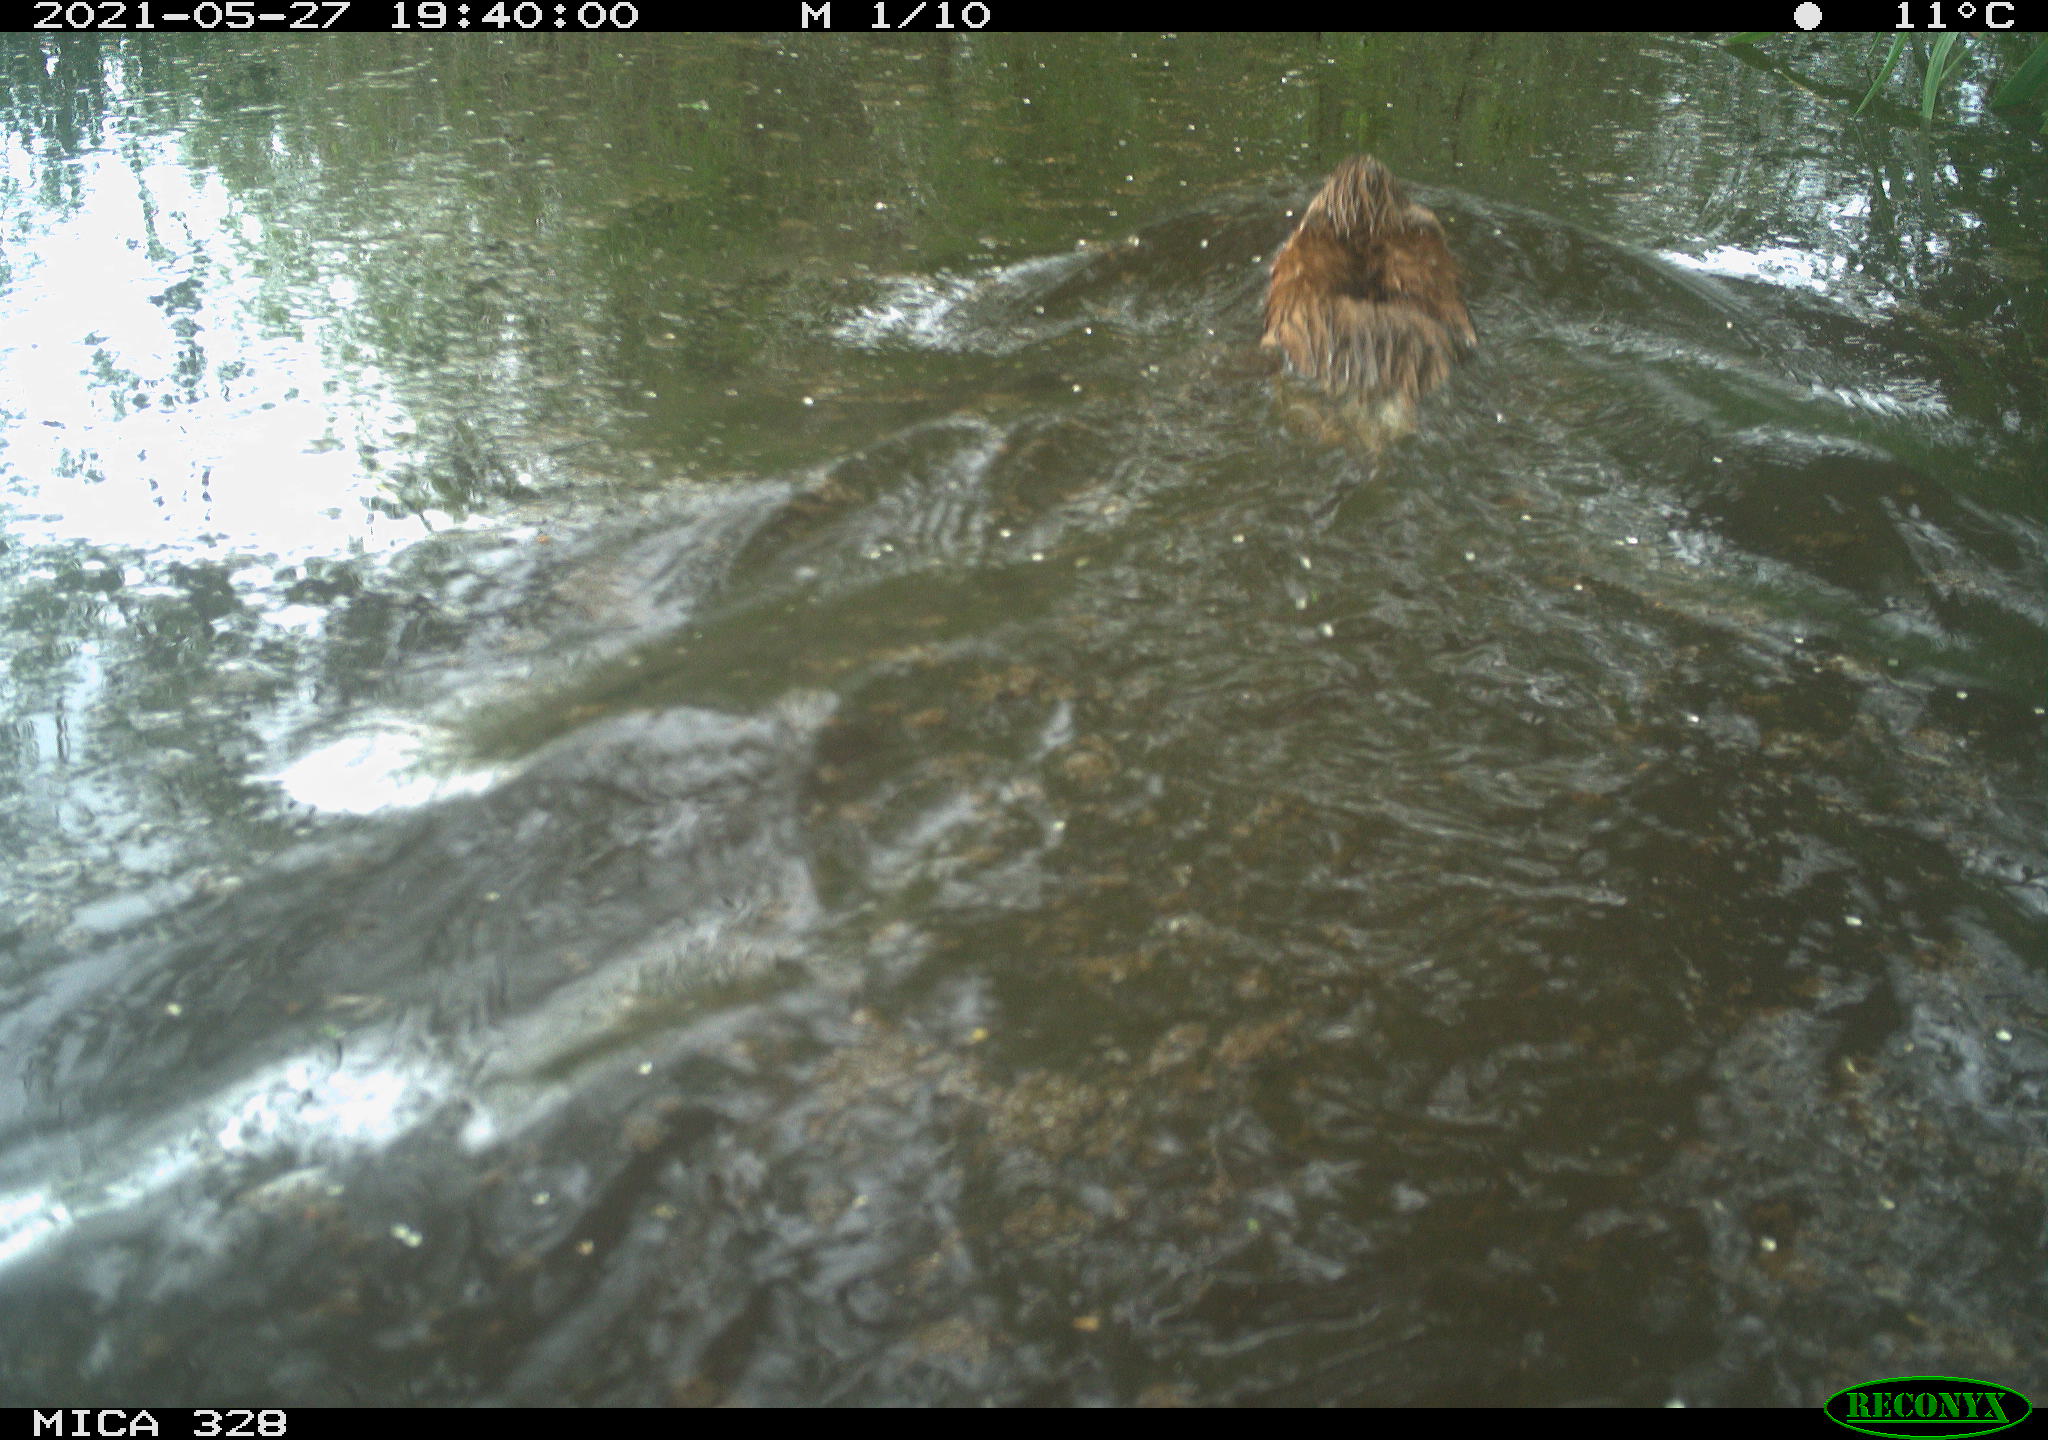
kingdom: Animalia
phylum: Chordata
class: Mammalia
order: Rodentia
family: Cricetidae
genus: Ondatra
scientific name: Ondatra zibethicus
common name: Muskrat
